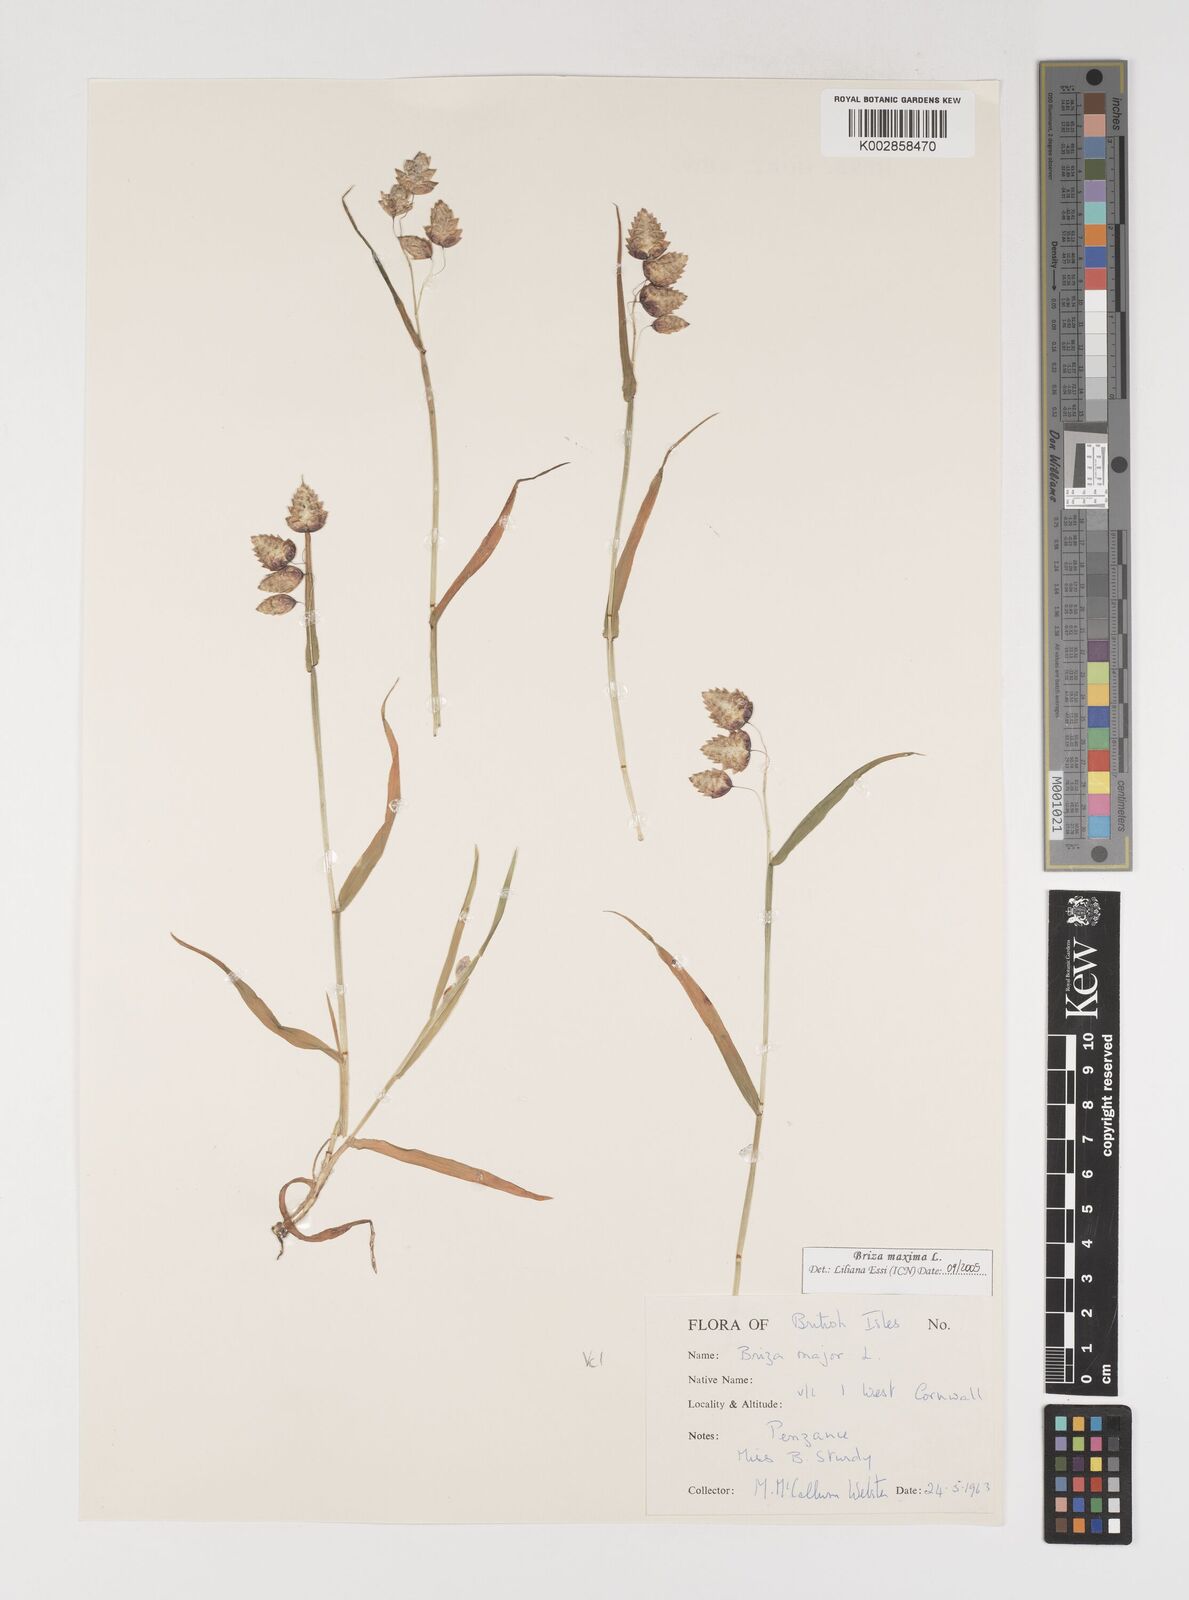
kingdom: Plantae
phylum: Tracheophyta
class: Liliopsida
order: Poales
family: Poaceae
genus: Briza
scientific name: Briza maxima
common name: Big quakinggrass
